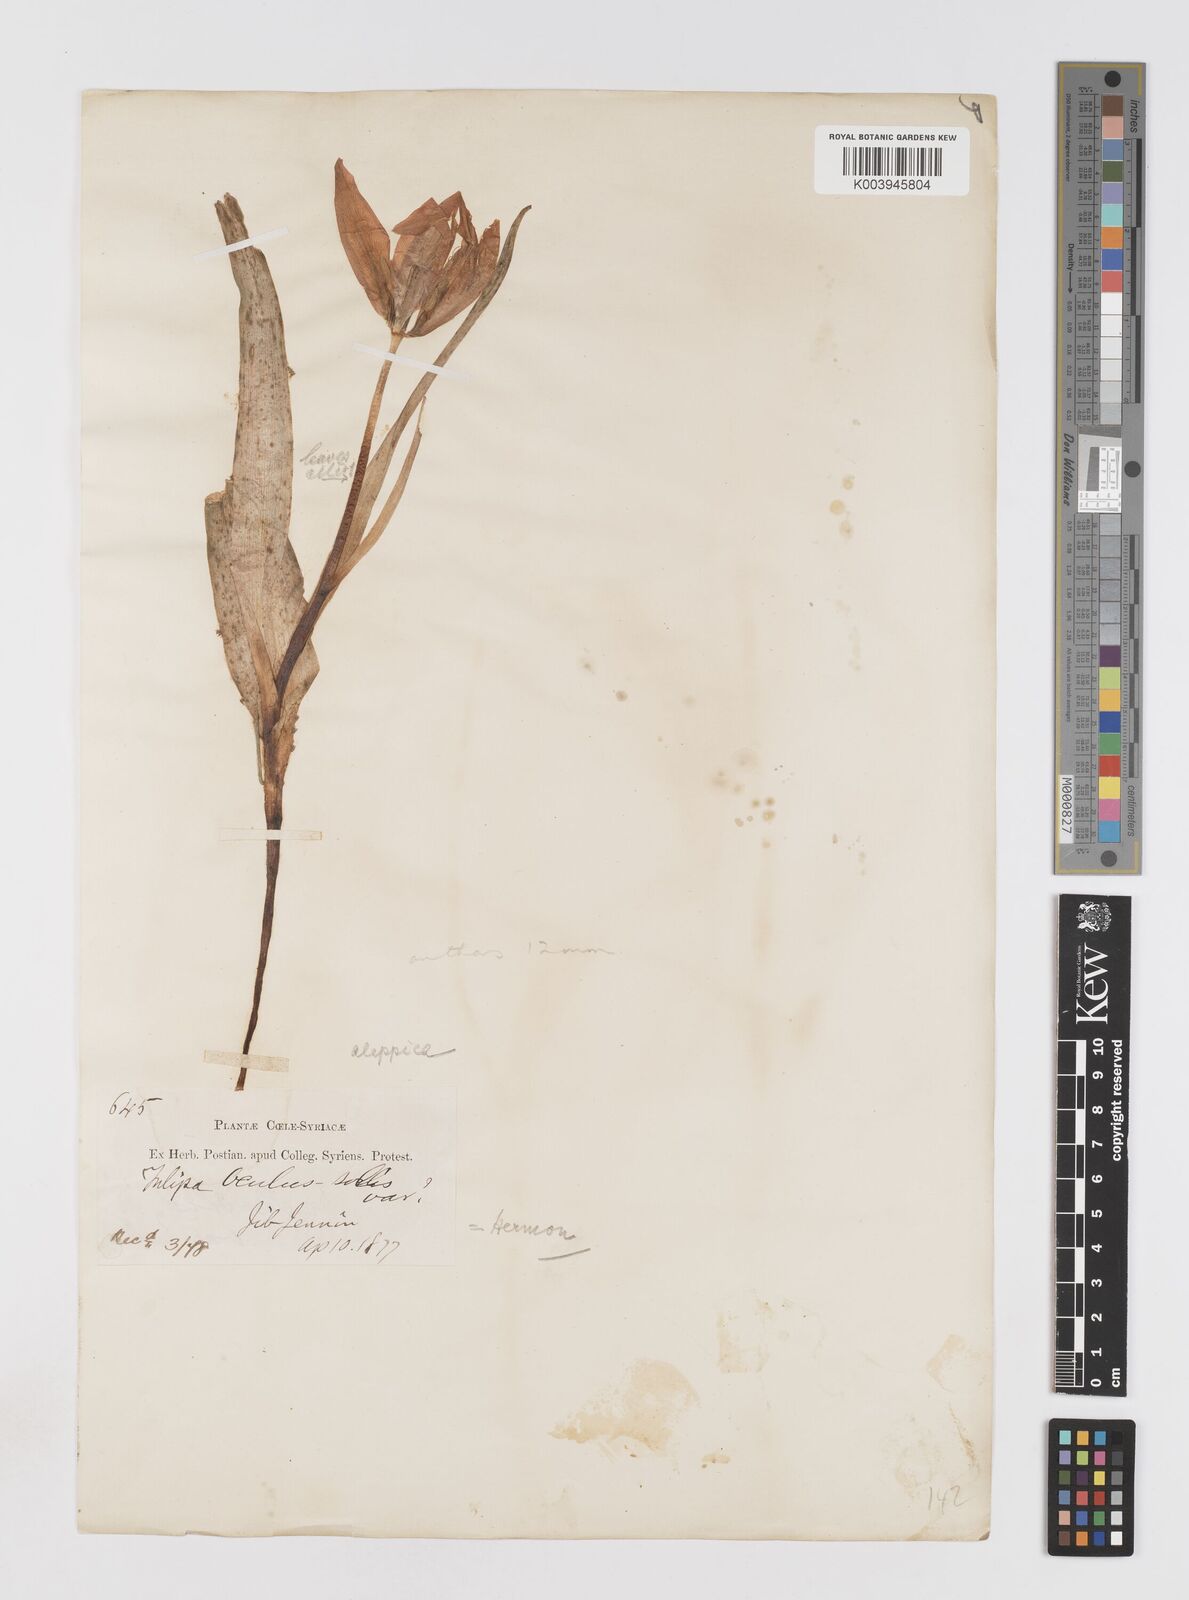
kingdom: Plantae
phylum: Tracheophyta
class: Liliopsida
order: Liliales
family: Liliaceae
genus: Tulipa
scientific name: Tulipa aleppensis
